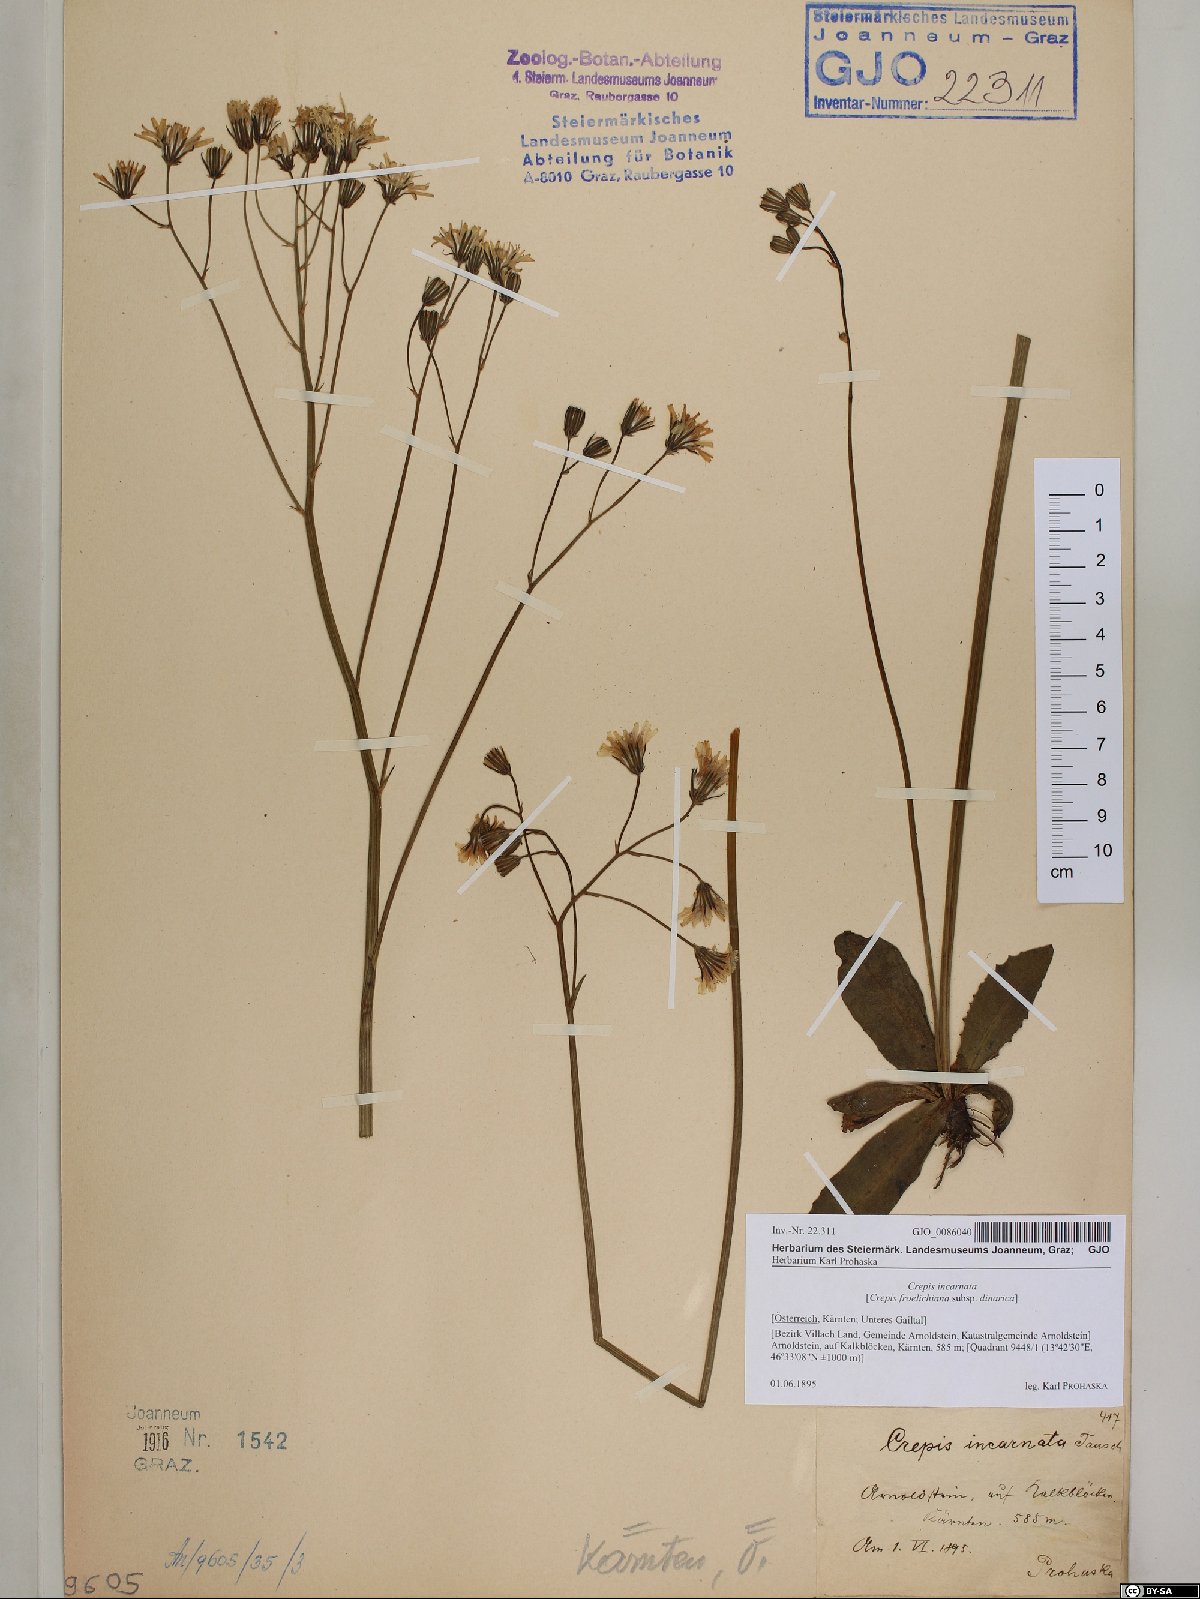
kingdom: Plantae
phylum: Tracheophyta
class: Magnoliopsida
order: Asterales
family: Asteraceae
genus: Crepis
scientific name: Crepis froelichiana
